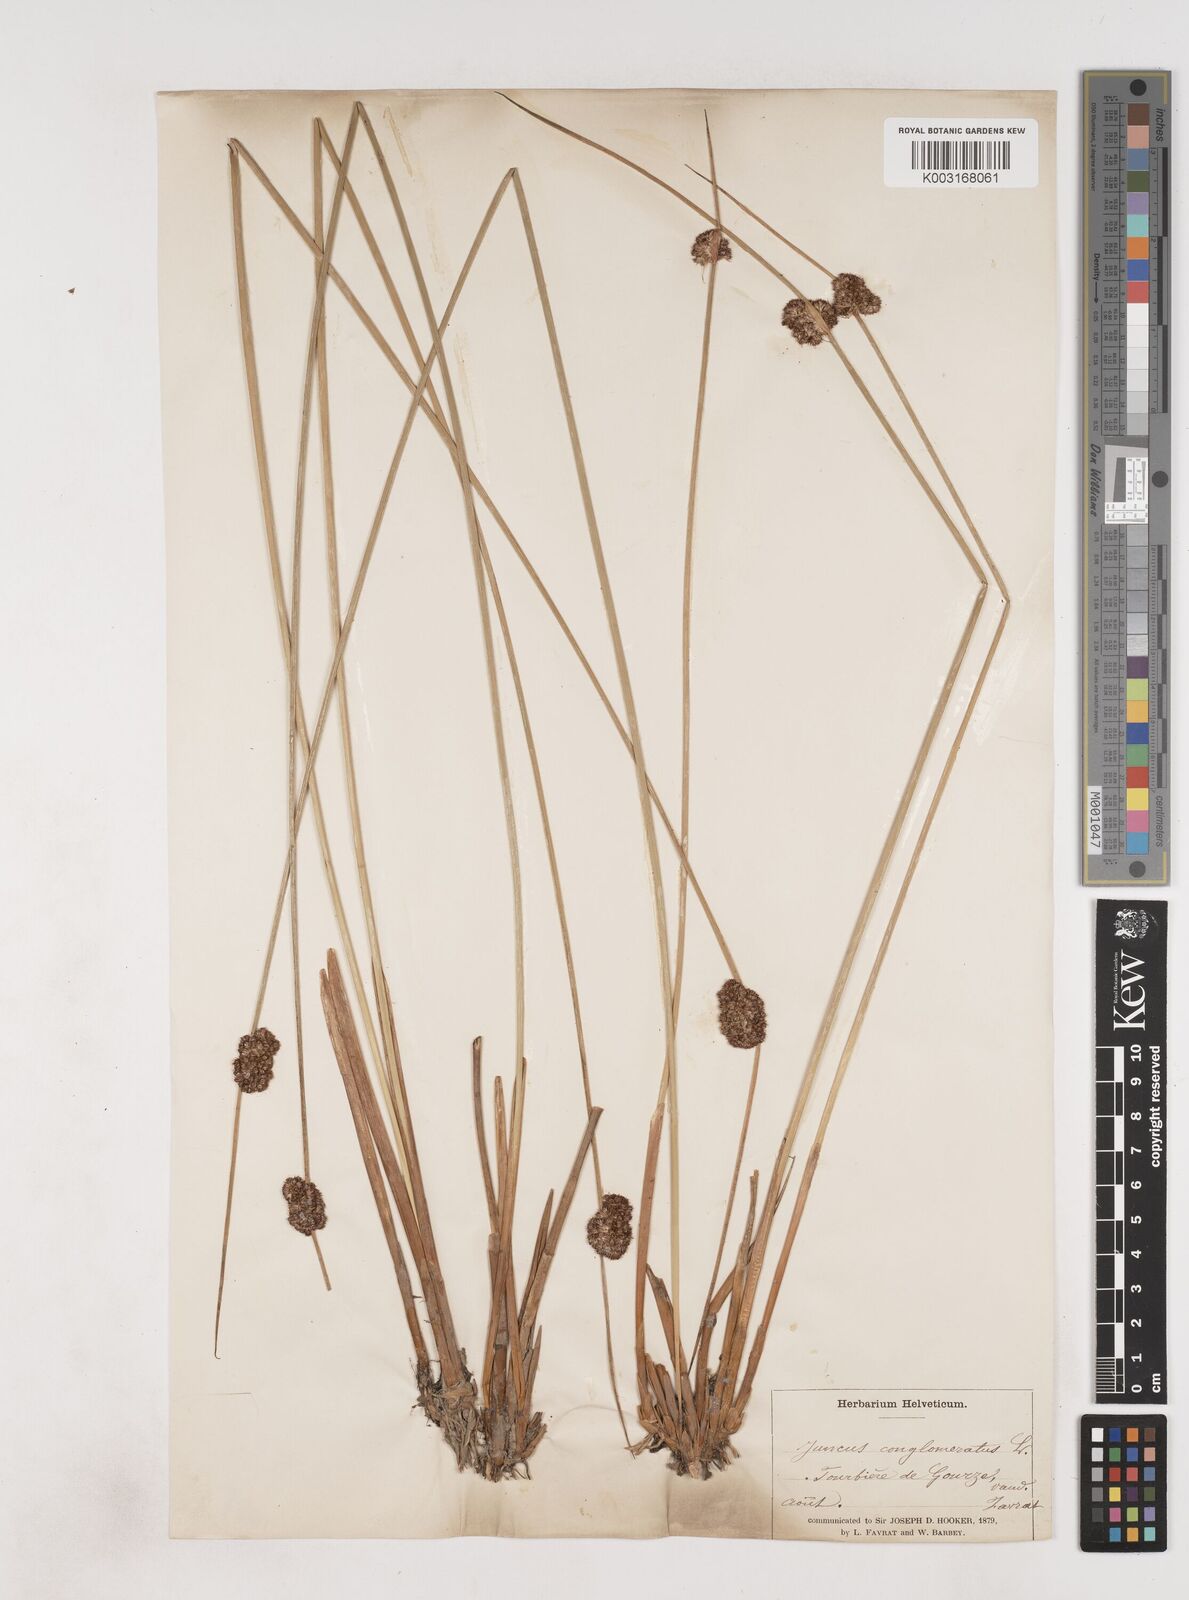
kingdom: Plantae
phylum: Tracheophyta
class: Liliopsida
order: Poales
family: Juncaceae
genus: Juncus
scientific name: Juncus conglomeratus
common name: Compact rush
